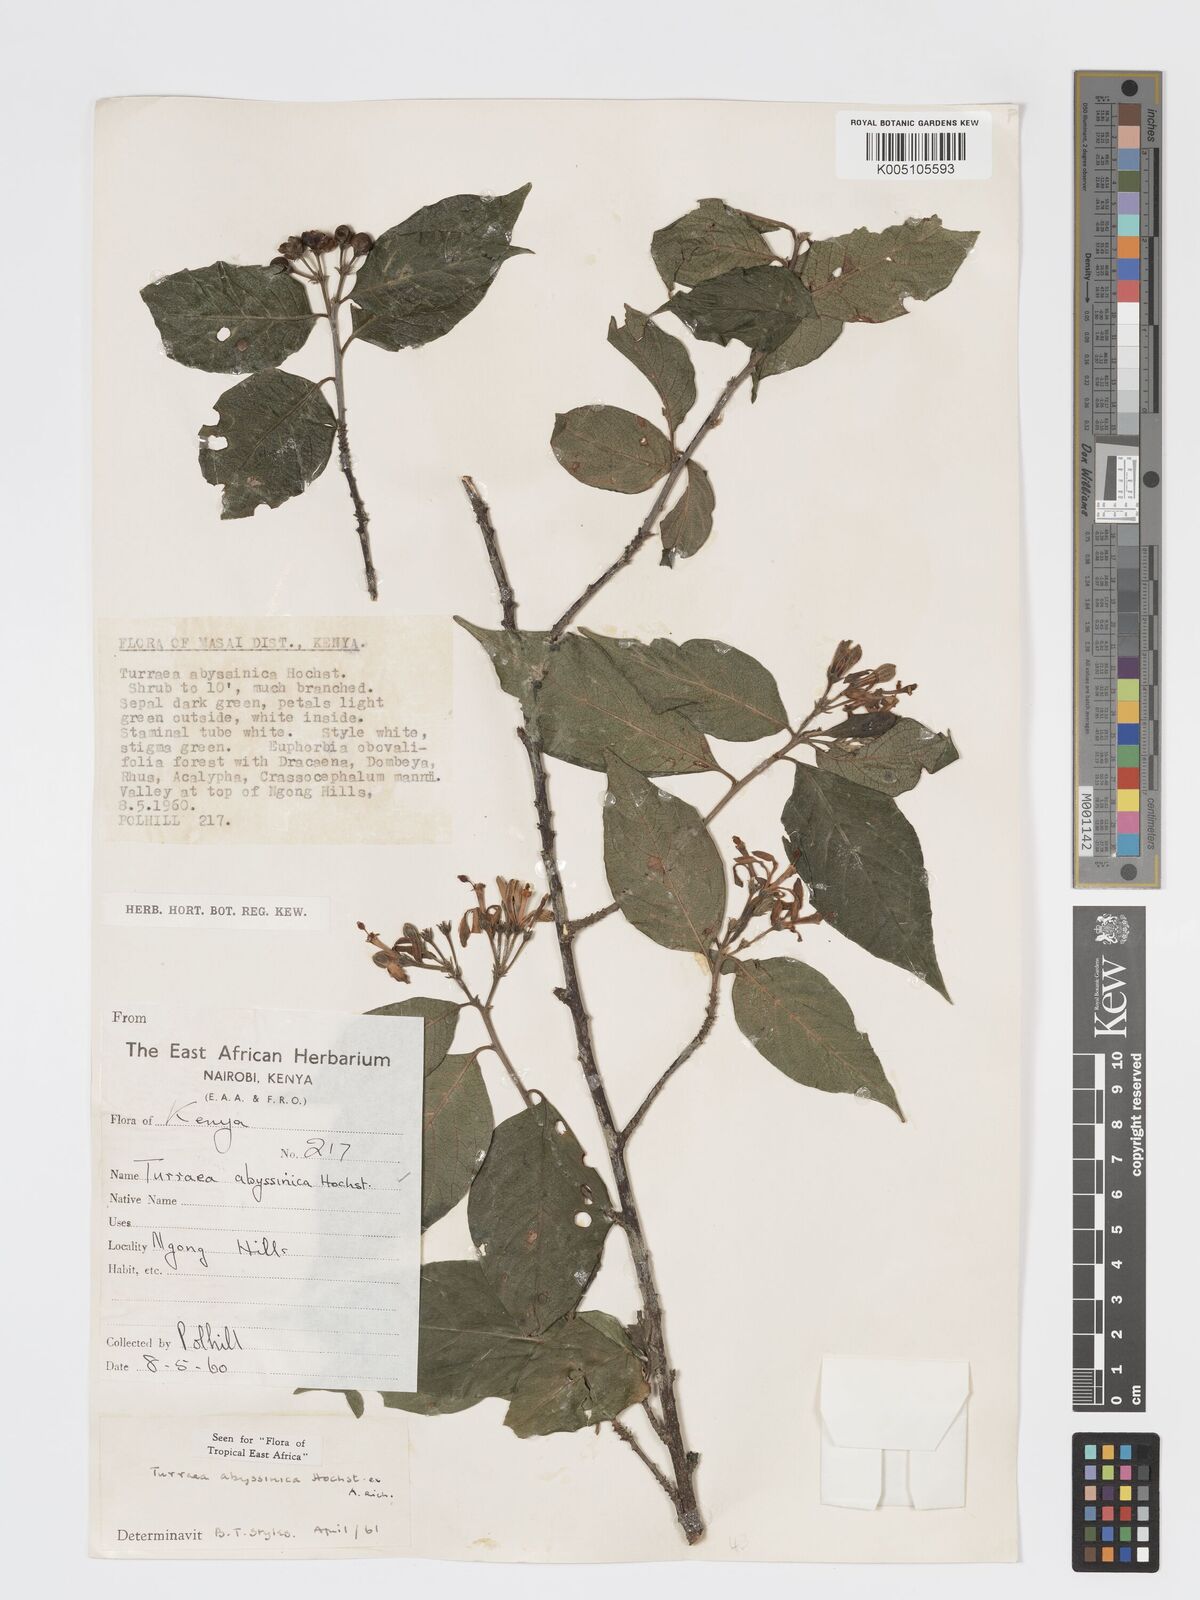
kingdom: Plantae
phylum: Tracheophyta
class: Magnoliopsida
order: Sapindales
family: Meliaceae
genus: Turraea
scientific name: Turraea abyssinica
